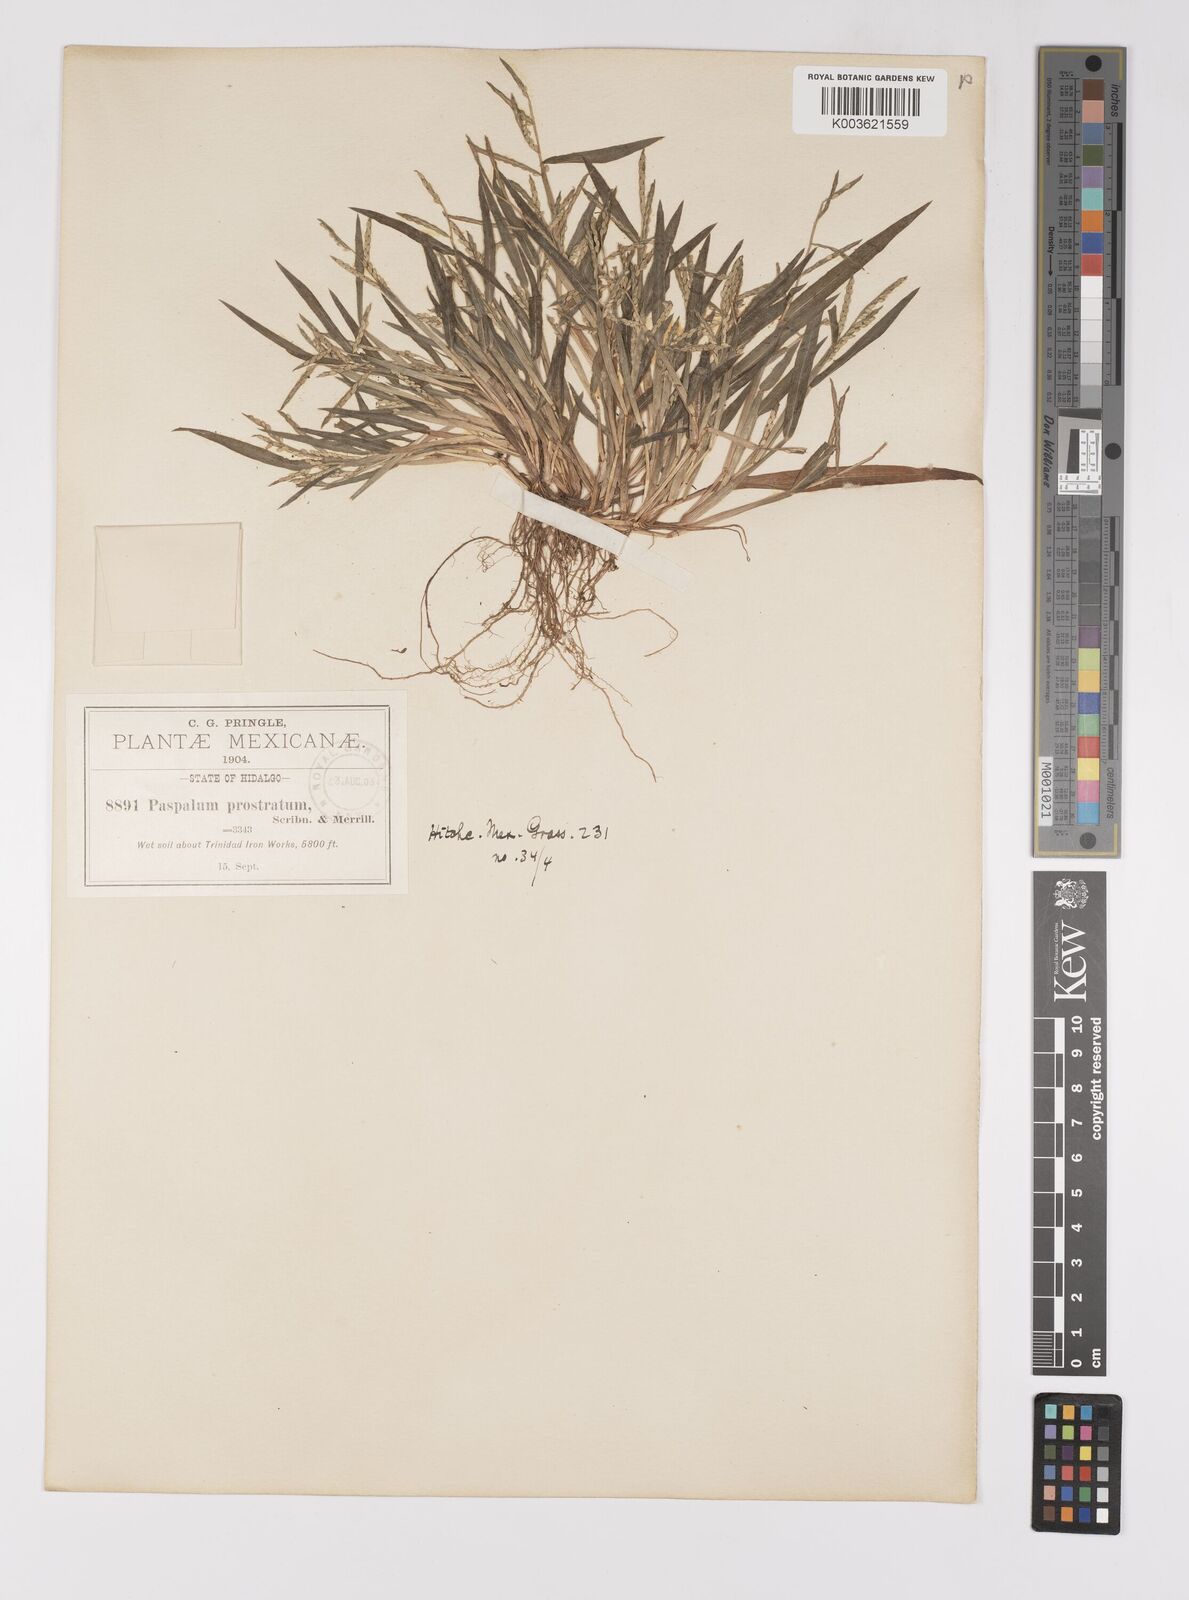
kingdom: Plantae
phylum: Tracheophyta
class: Liliopsida
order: Poales
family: Poaceae
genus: Paspalum
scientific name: Paspalum prostratum
